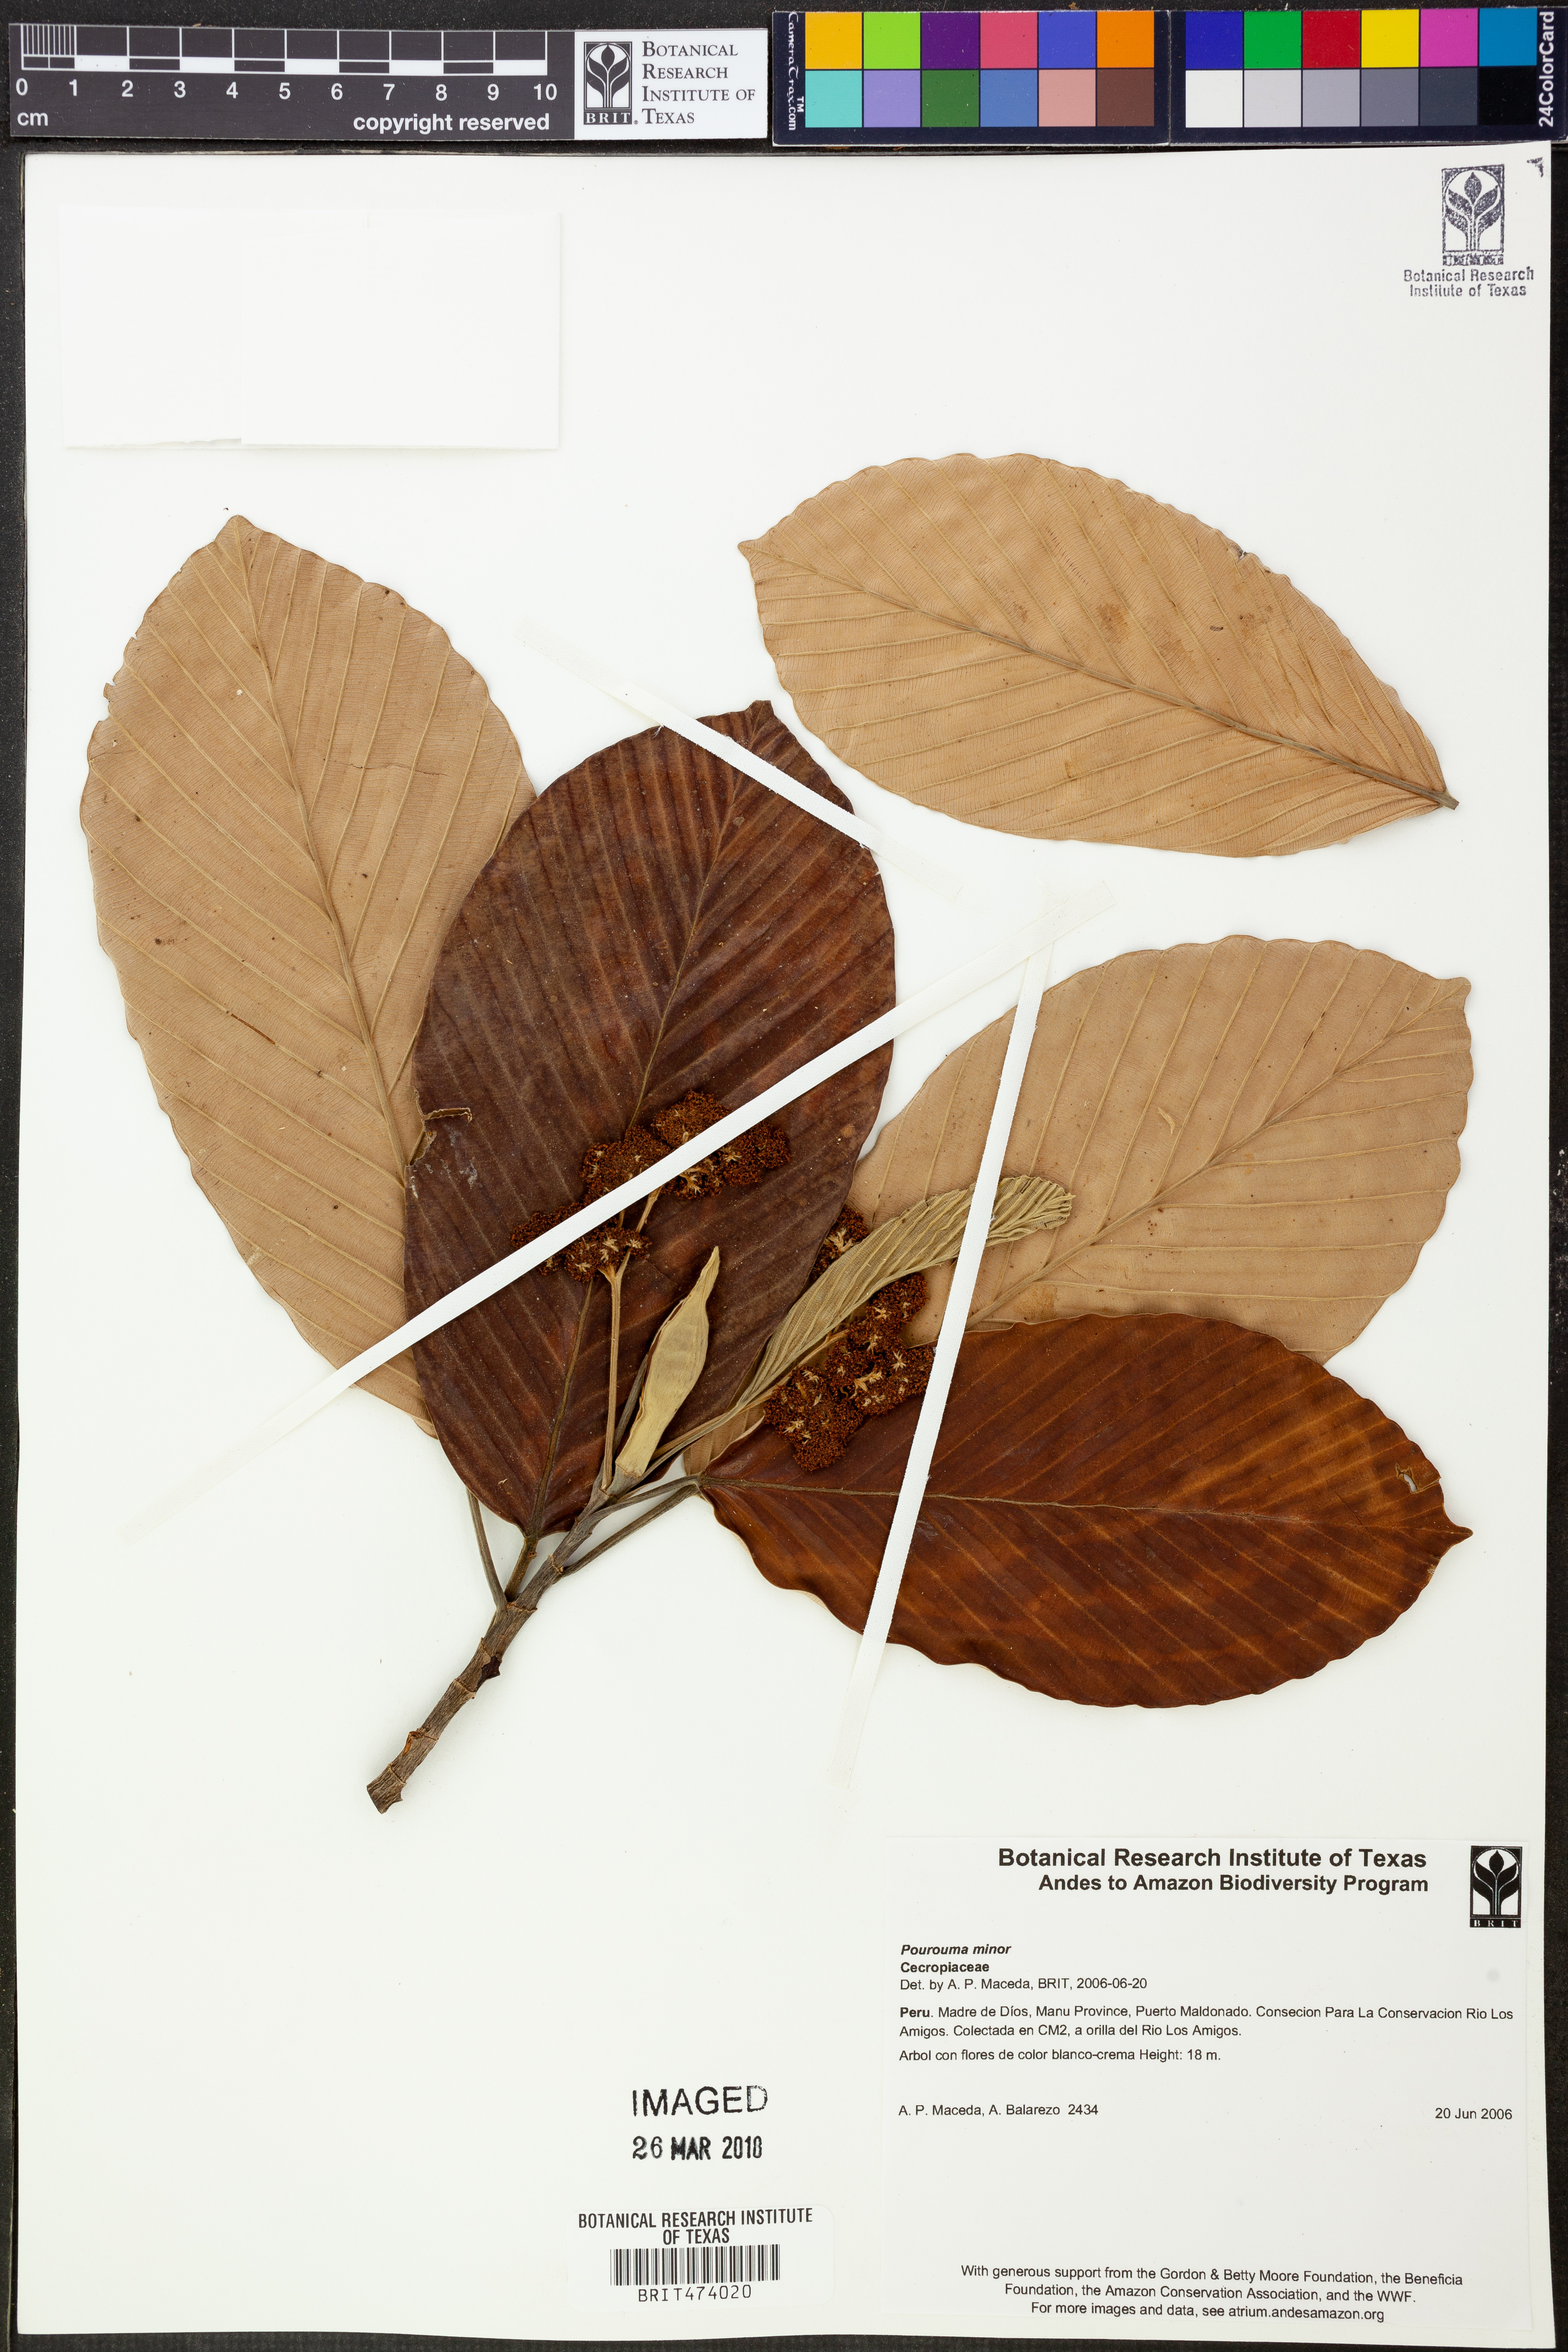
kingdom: Plantae
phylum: Tracheophyta
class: Magnoliopsida
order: Rosales
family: Urticaceae
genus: Pourouma
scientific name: Pourouma
